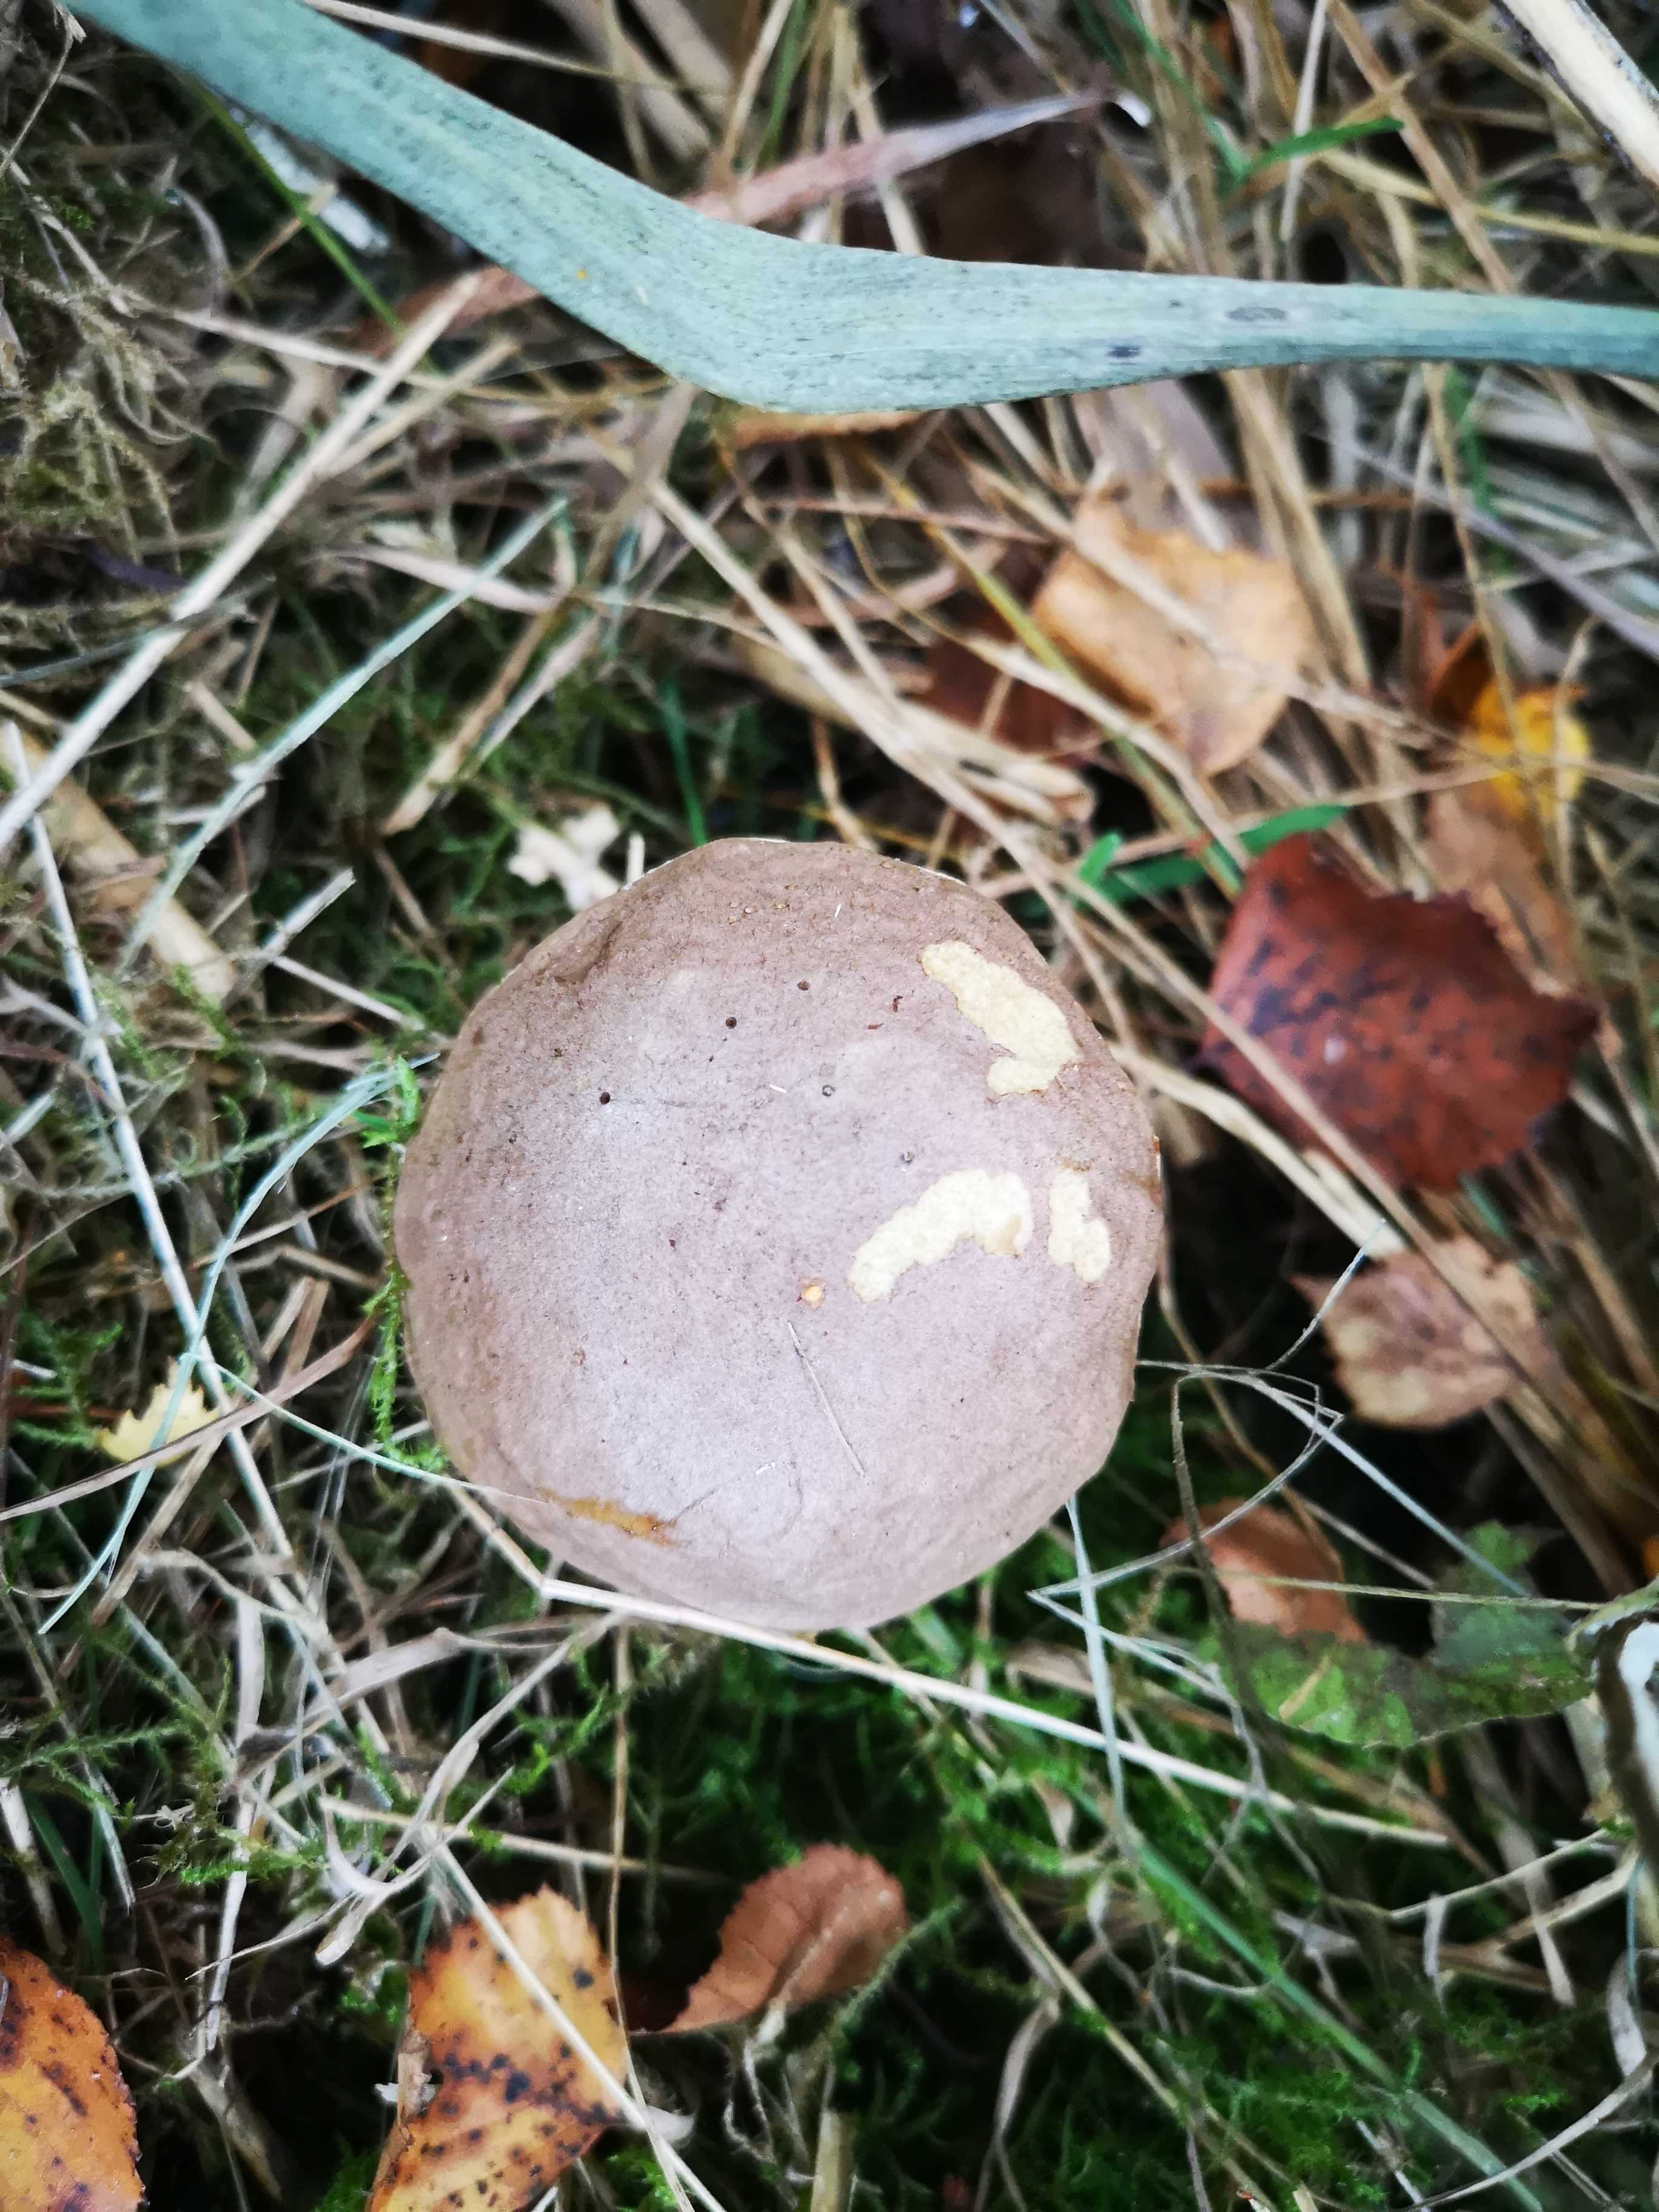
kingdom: Fungi
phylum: Basidiomycota
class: Agaricomycetes
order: Boletales
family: Boletaceae
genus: Leccinum
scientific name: Leccinum
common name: skælrørhat
